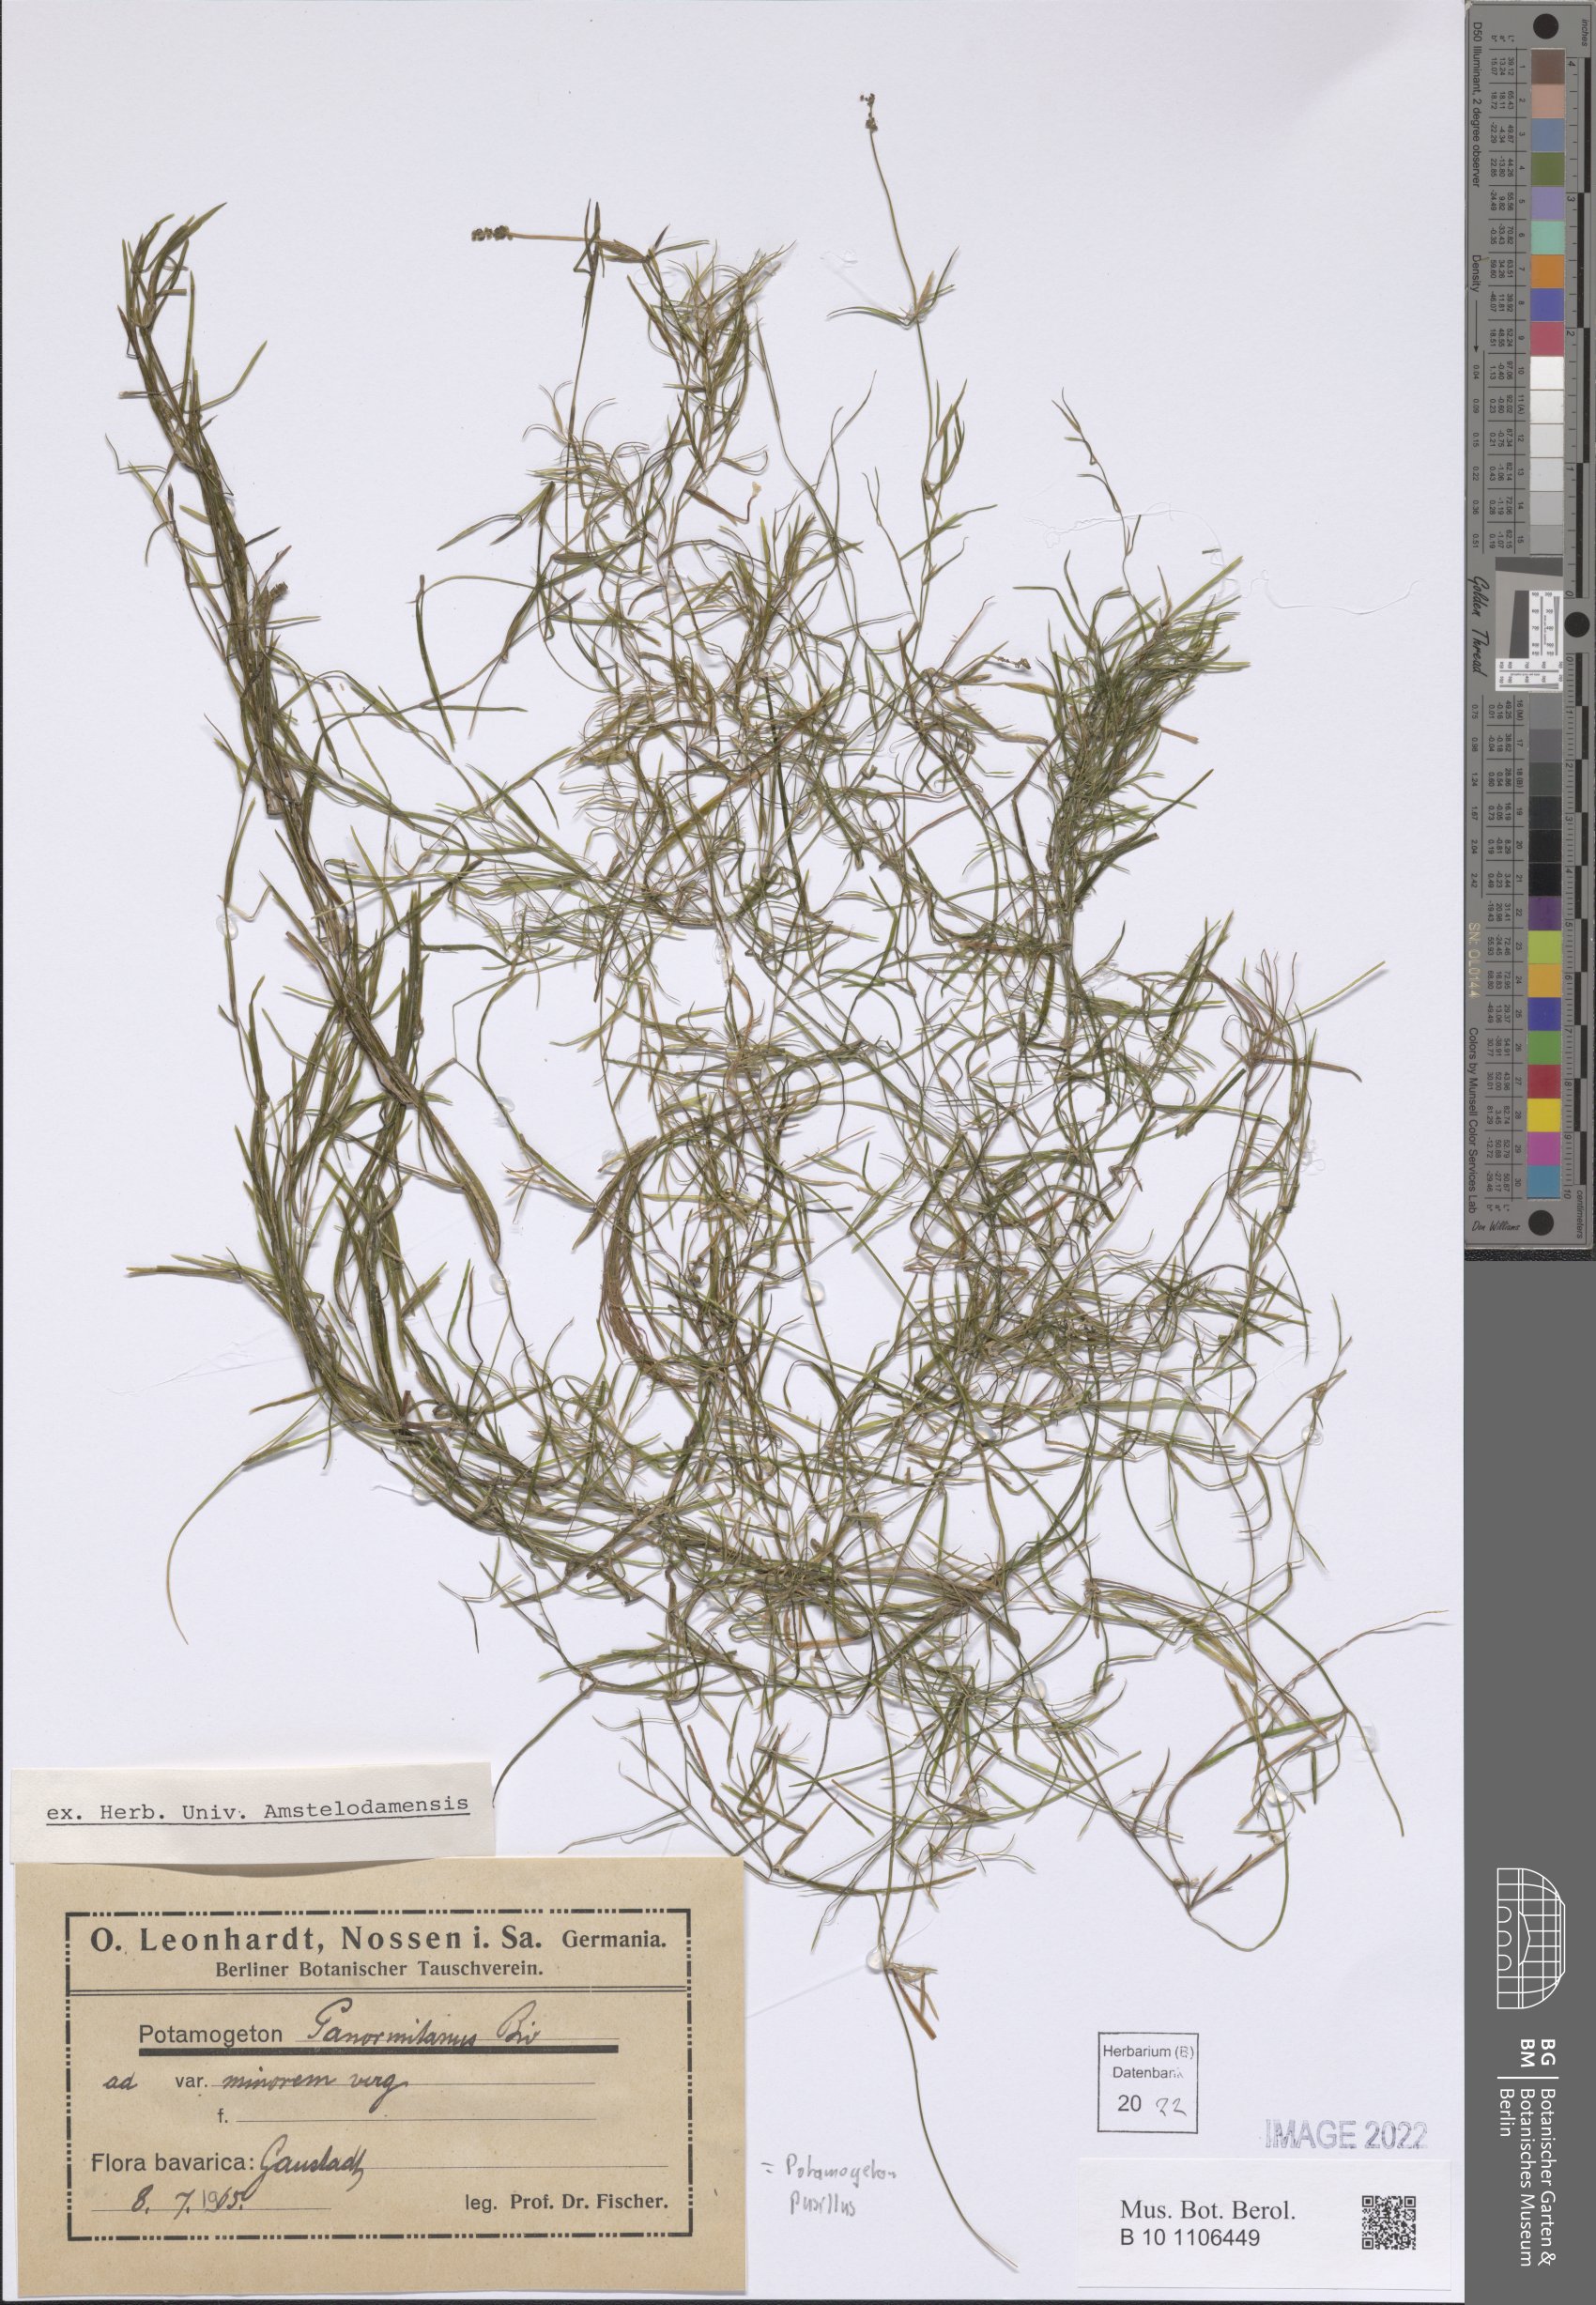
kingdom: Plantae
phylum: Tracheophyta
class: Liliopsida
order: Alismatales
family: Potamogetonaceae
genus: Potamogeton
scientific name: Potamogeton pusillus
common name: Lesser pondweed
